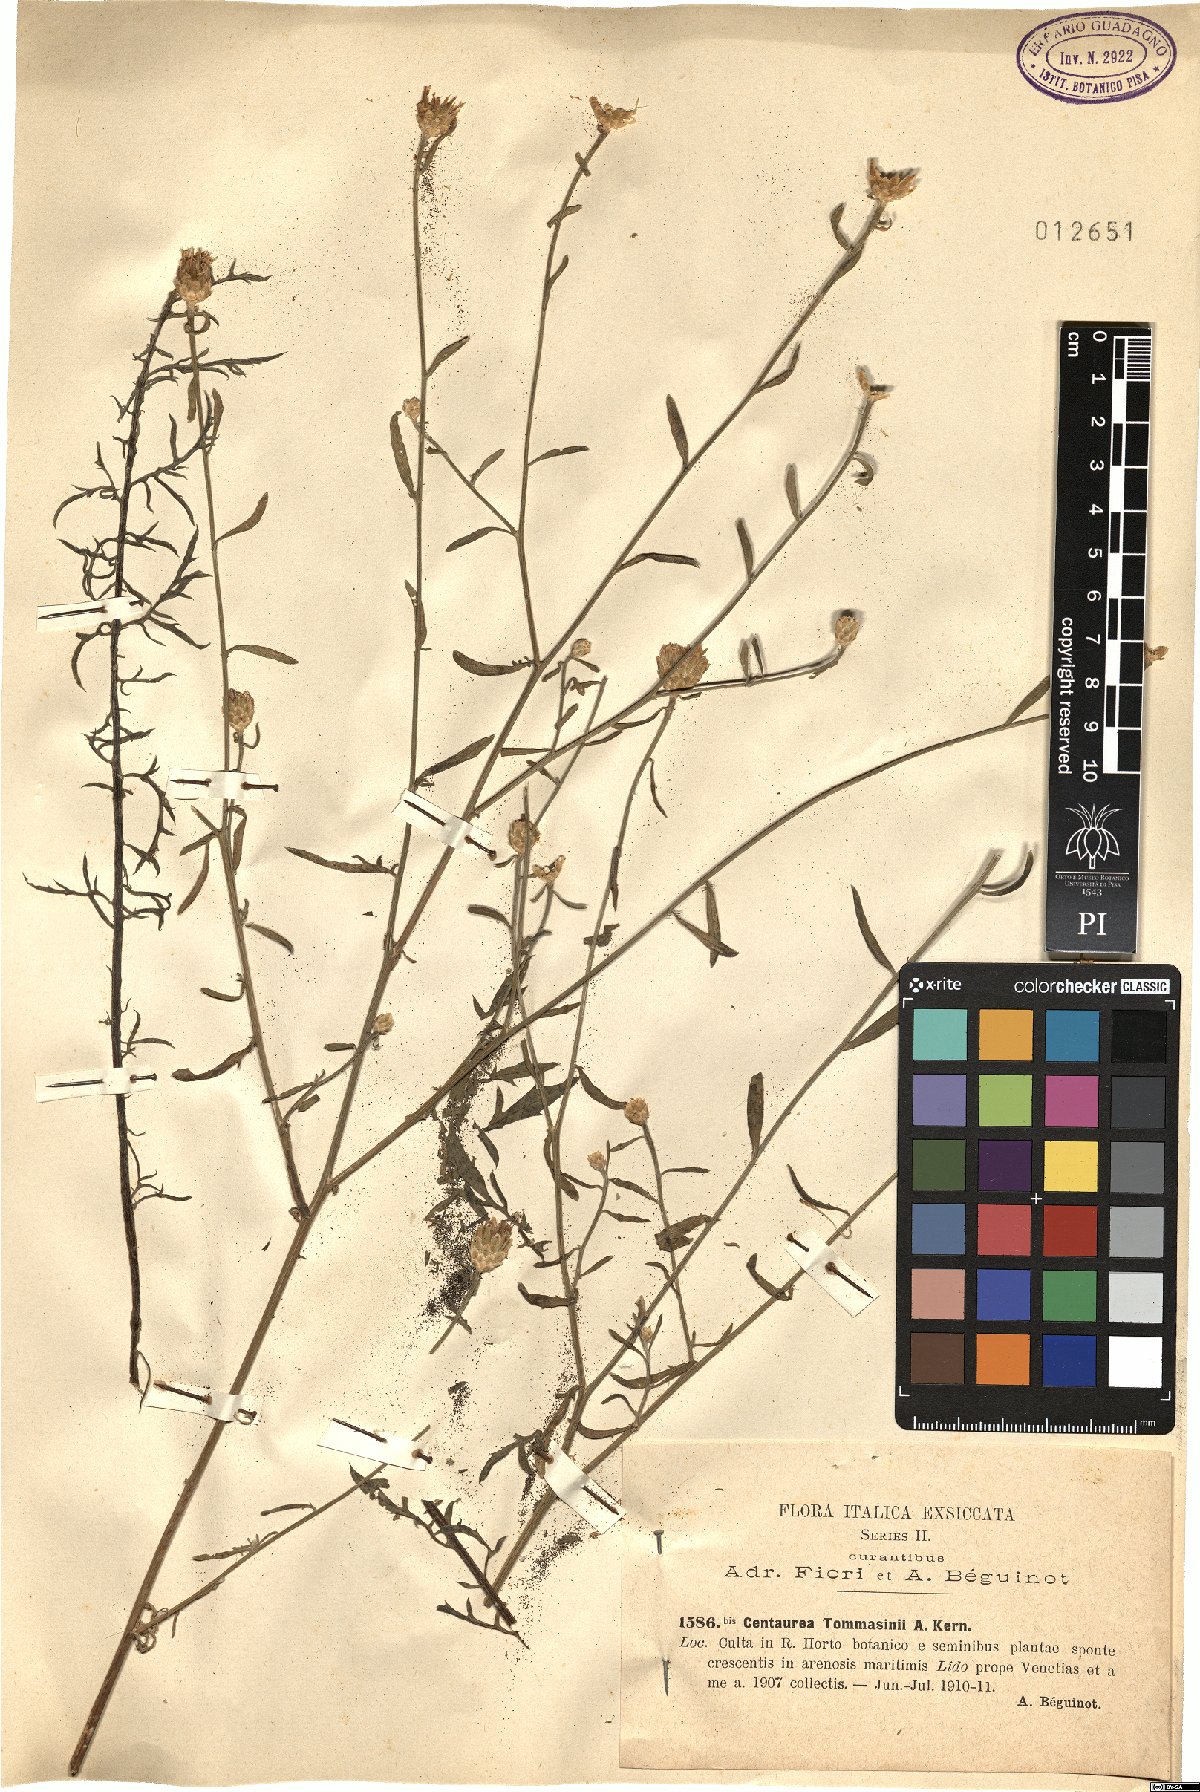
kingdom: Plantae
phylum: Tracheophyta
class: Magnoliopsida
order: Asterales
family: Asteraceae
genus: Centaurea
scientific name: Centaurea tommasinii
